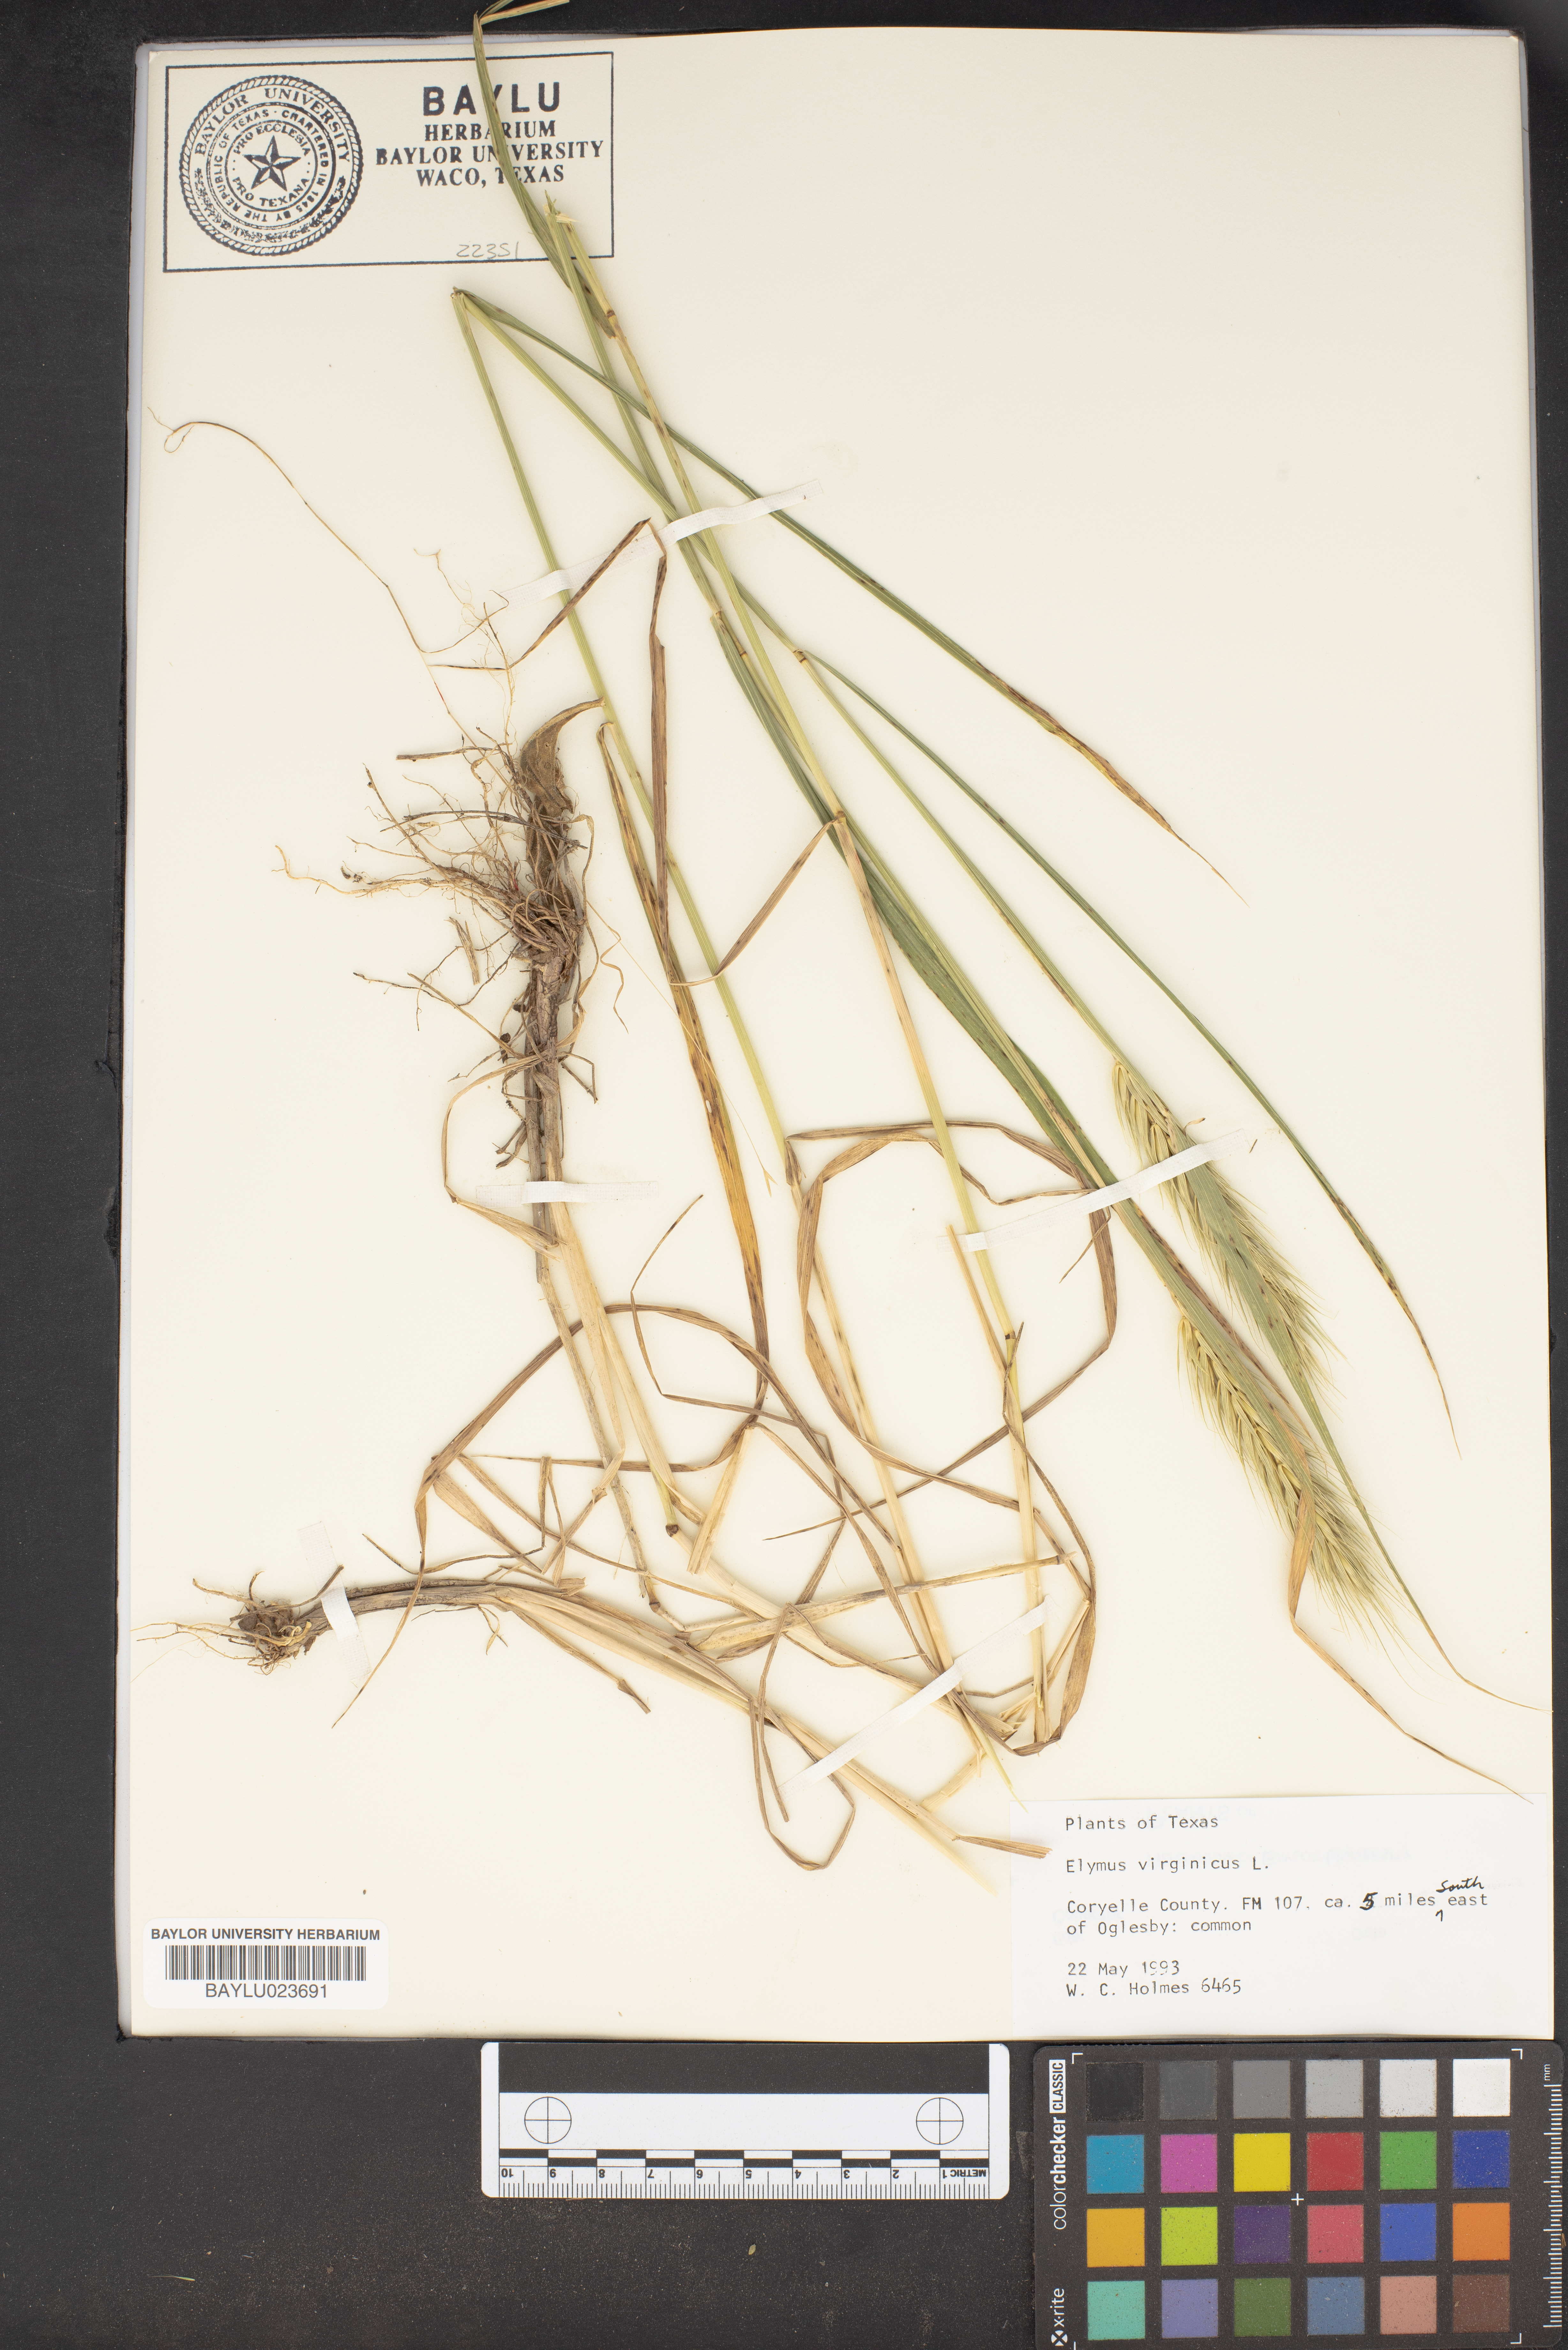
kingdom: Plantae
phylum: Tracheophyta
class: Liliopsida
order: Poales
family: Poaceae
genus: Elymus
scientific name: Elymus virginicus
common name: Common eastern wildrye
